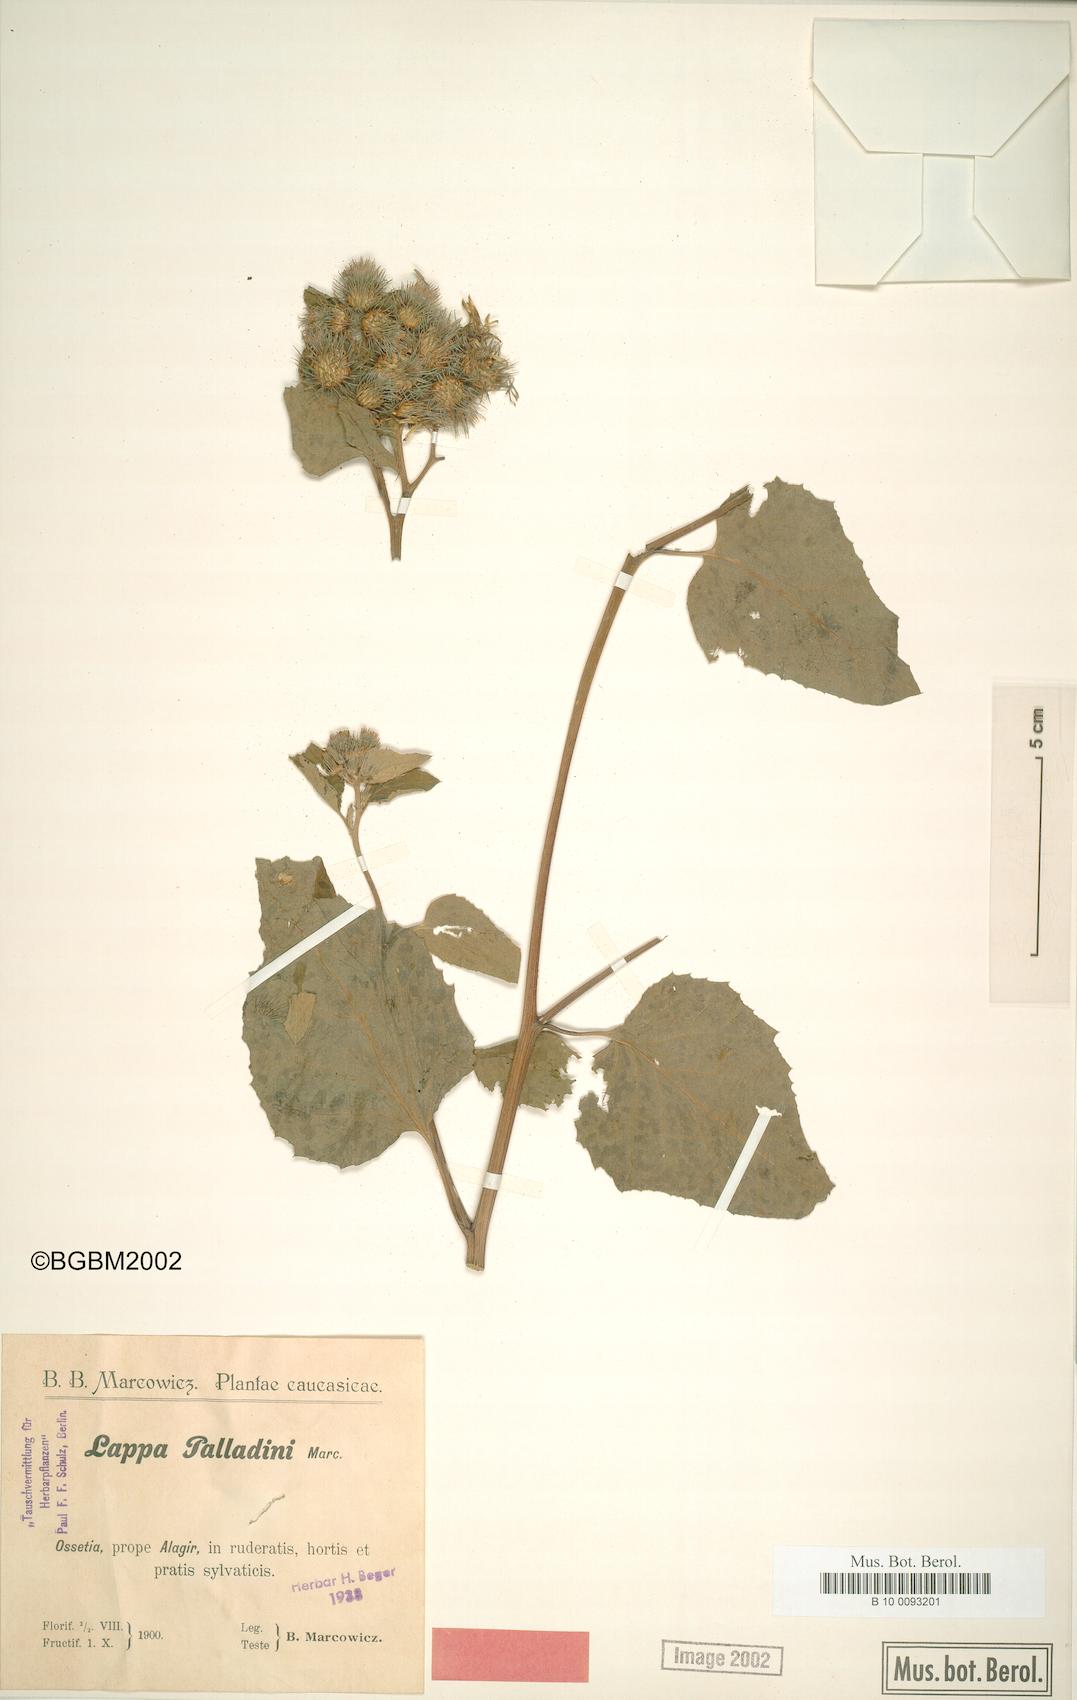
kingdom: Plantae
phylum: Tracheophyta
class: Magnoliopsida
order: Asterales
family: Asteraceae
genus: Arctium
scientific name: Arctium palladini
